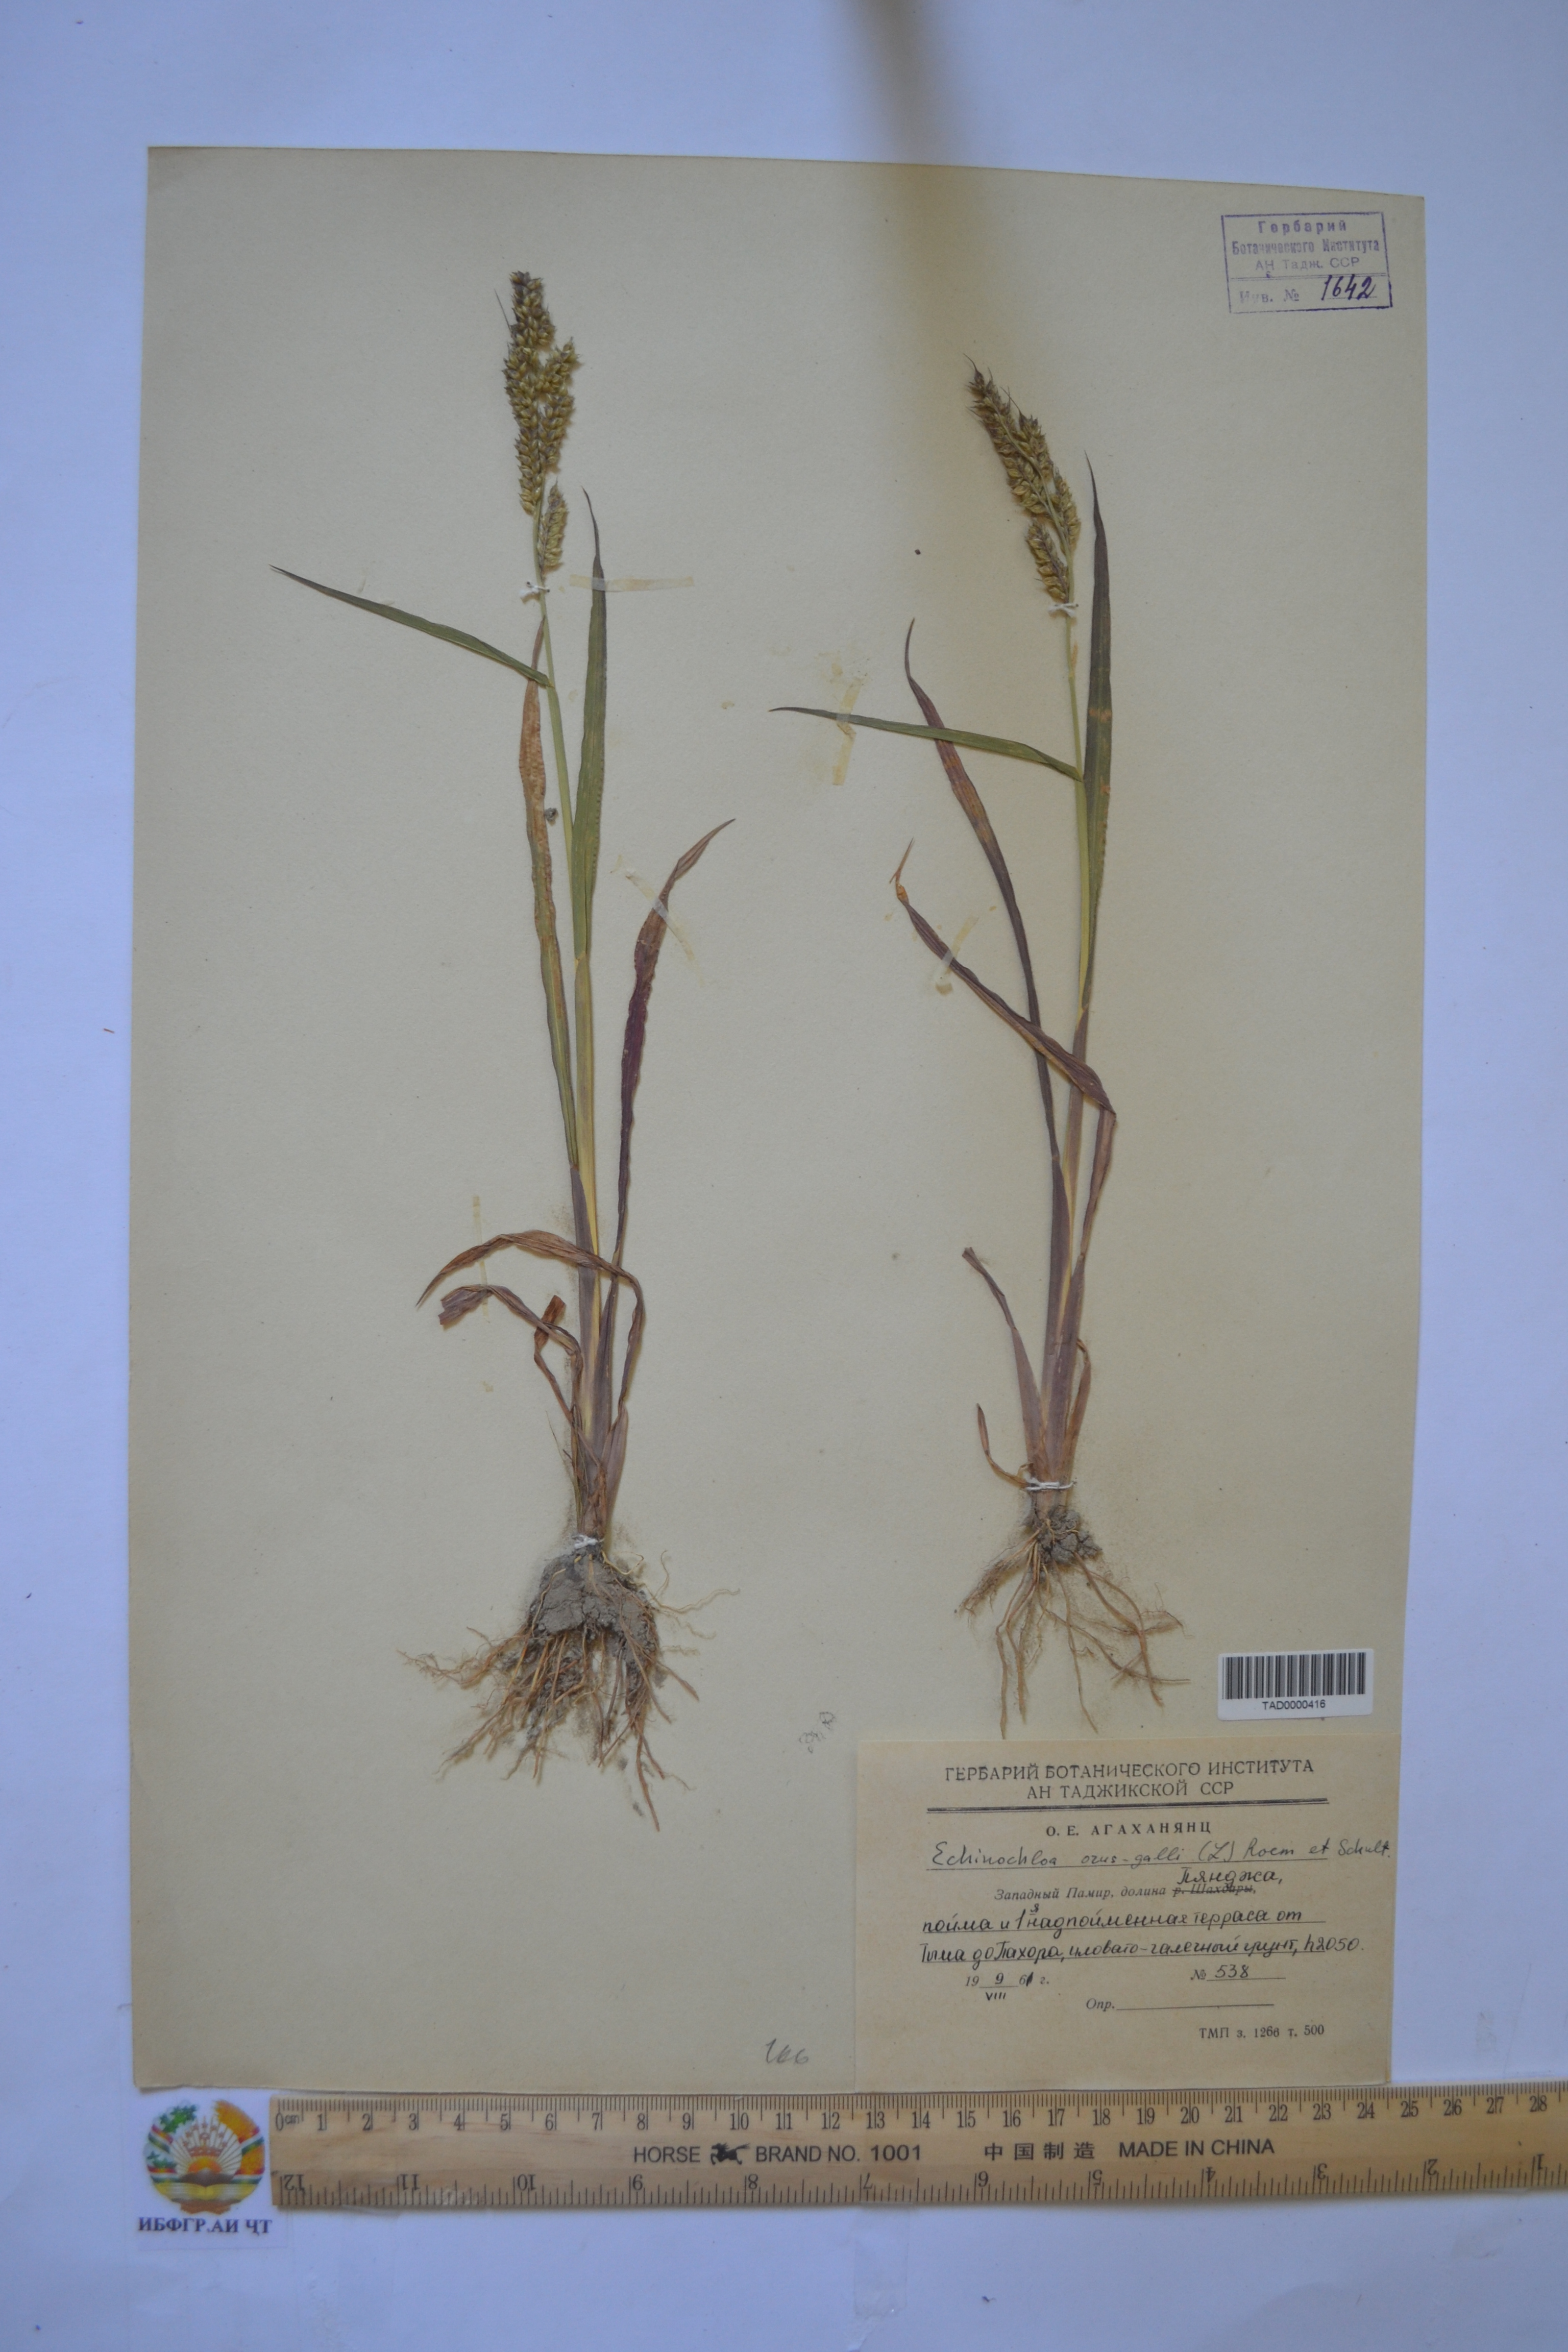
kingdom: Plantae
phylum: Tracheophyta
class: Liliopsida
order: Poales
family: Poaceae
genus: Echinochloa
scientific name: Echinochloa crus-galli
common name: Cockspur
